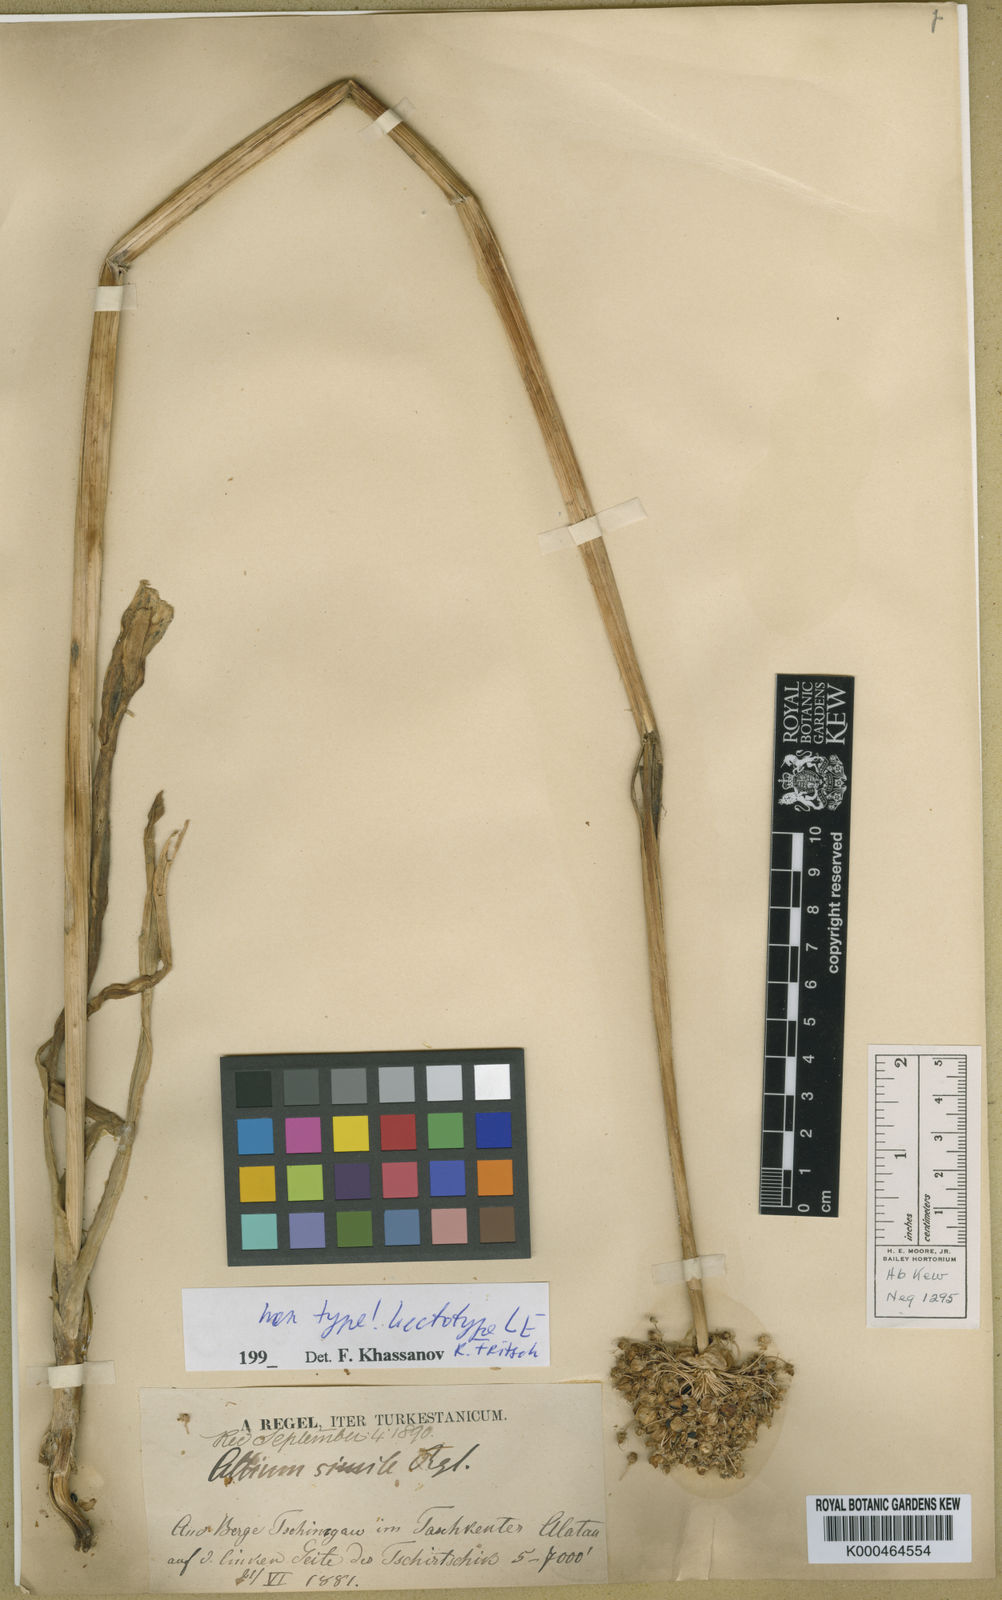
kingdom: Plantae
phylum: Tracheophyta
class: Liliopsida
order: Asparagales
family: Amaryllidaceae
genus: Allium
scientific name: Allium fetisowii
